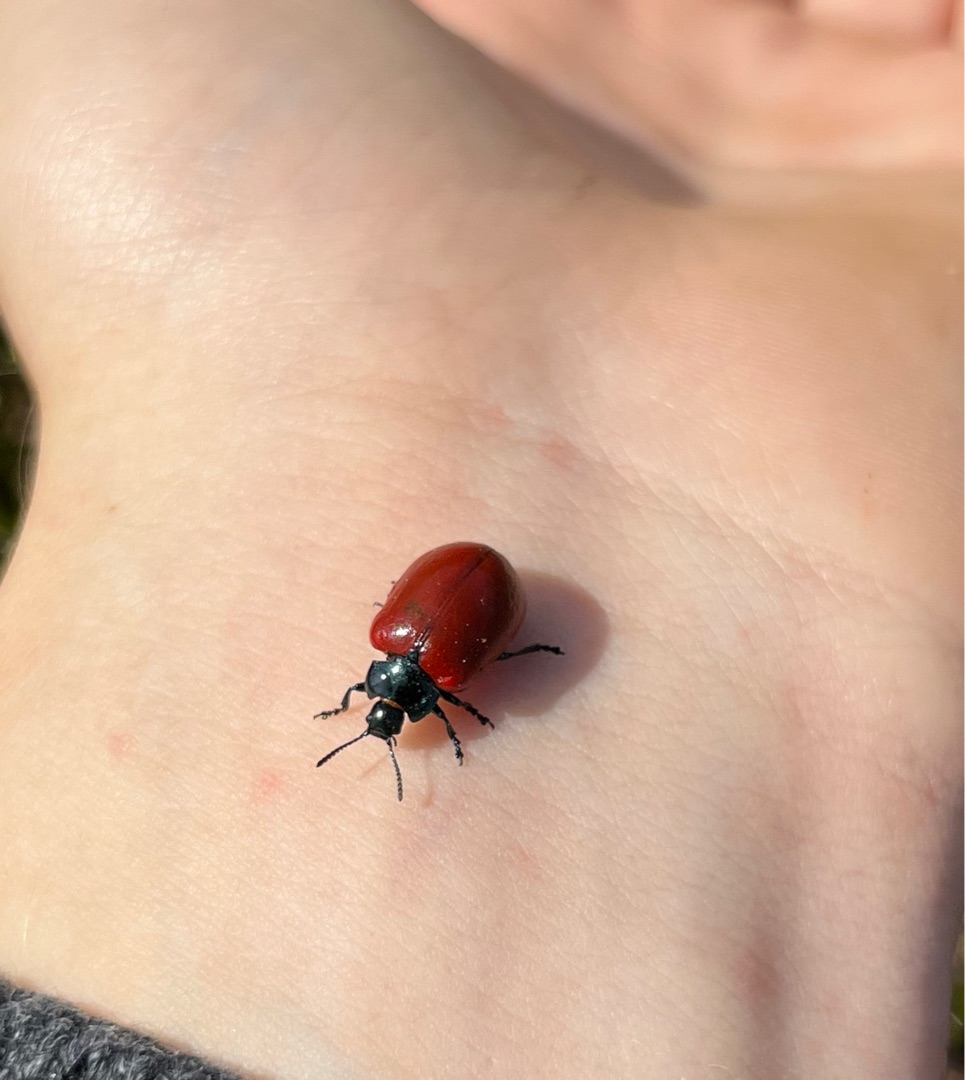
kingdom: Animalia
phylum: Arthropoda
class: Insecta
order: Coleoptera
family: Chrysomelidae
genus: Chrysomela
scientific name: Chrysomela populi
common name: Poppelbladbille
